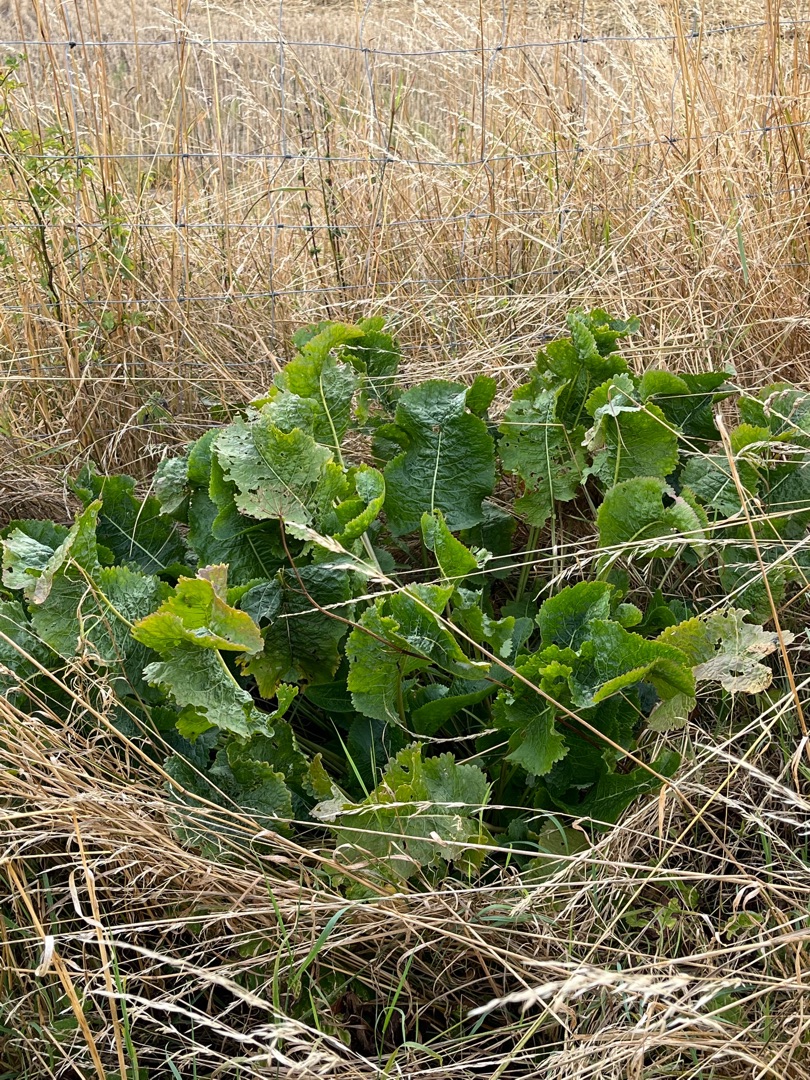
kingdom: Plantae
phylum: Tracheophyta
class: Magnoliopsida
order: Brassicales
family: Brassicaceae
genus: Armoracia
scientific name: Armoracia rusticana
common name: Peberrod
